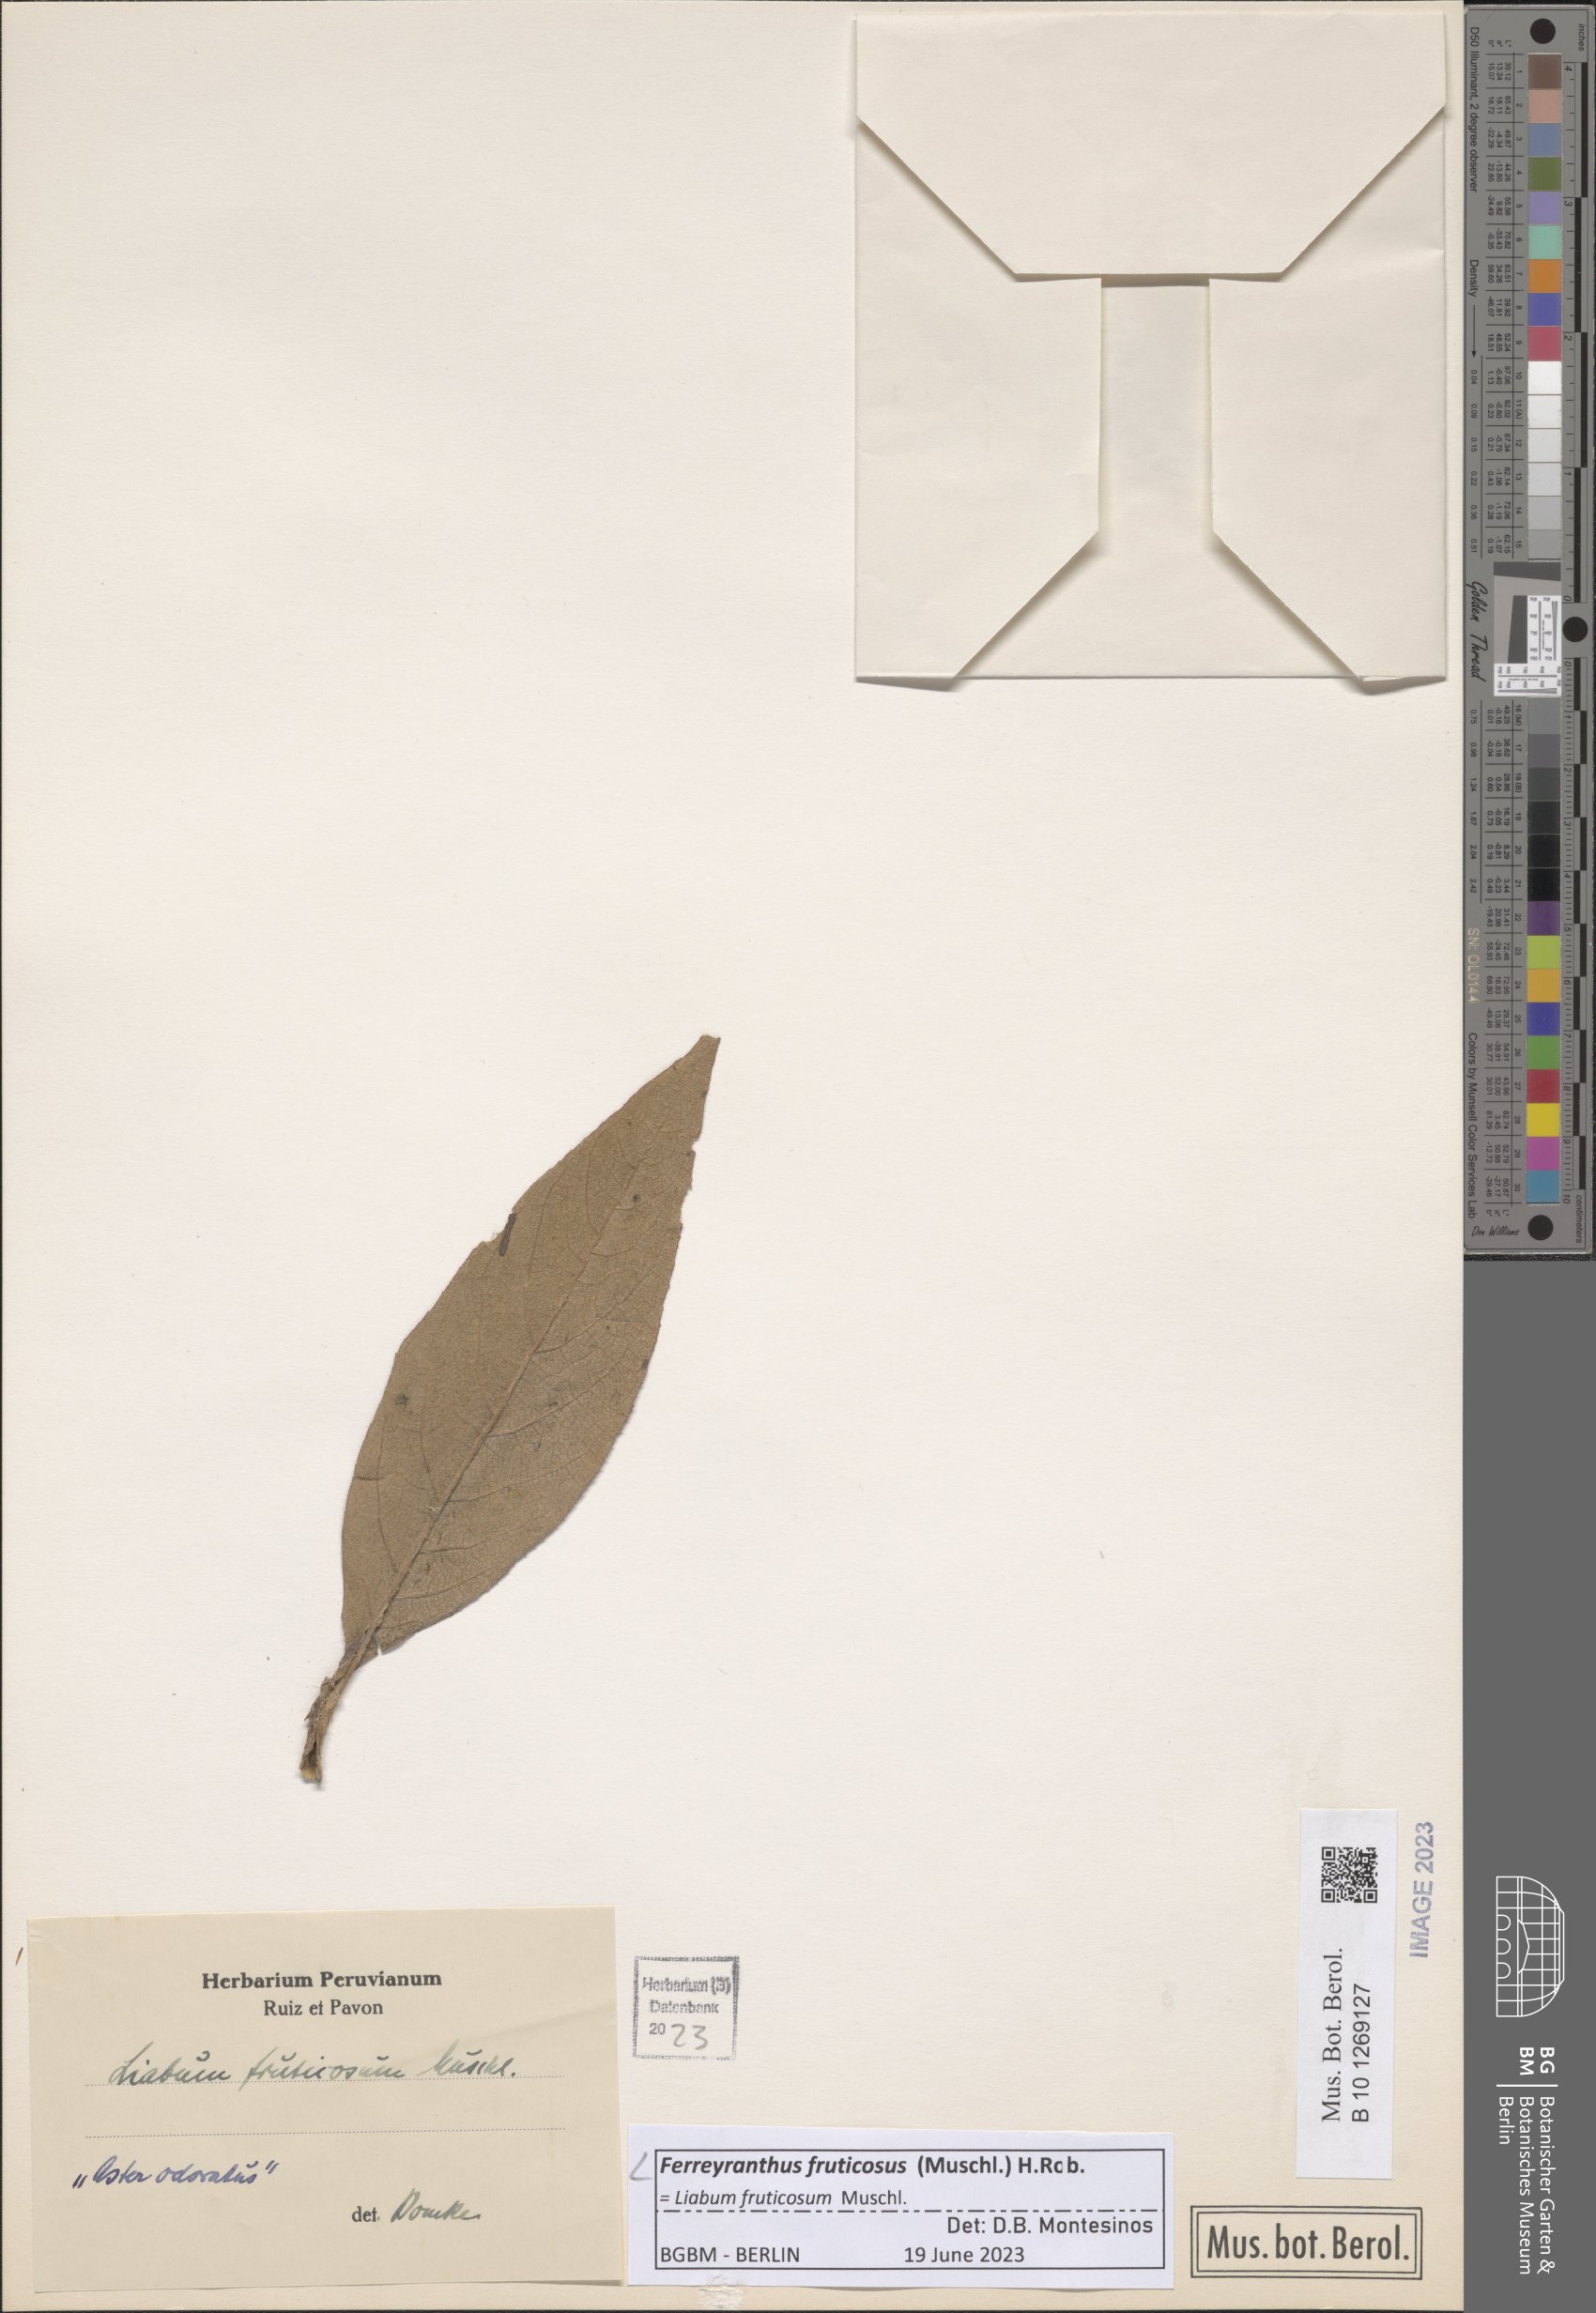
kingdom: Plantae
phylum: Tracheophyta
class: Magnoliopsida
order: Asterales
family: Asteraceae
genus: Ferreyranthus
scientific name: Ferreyranthus fruticosus
